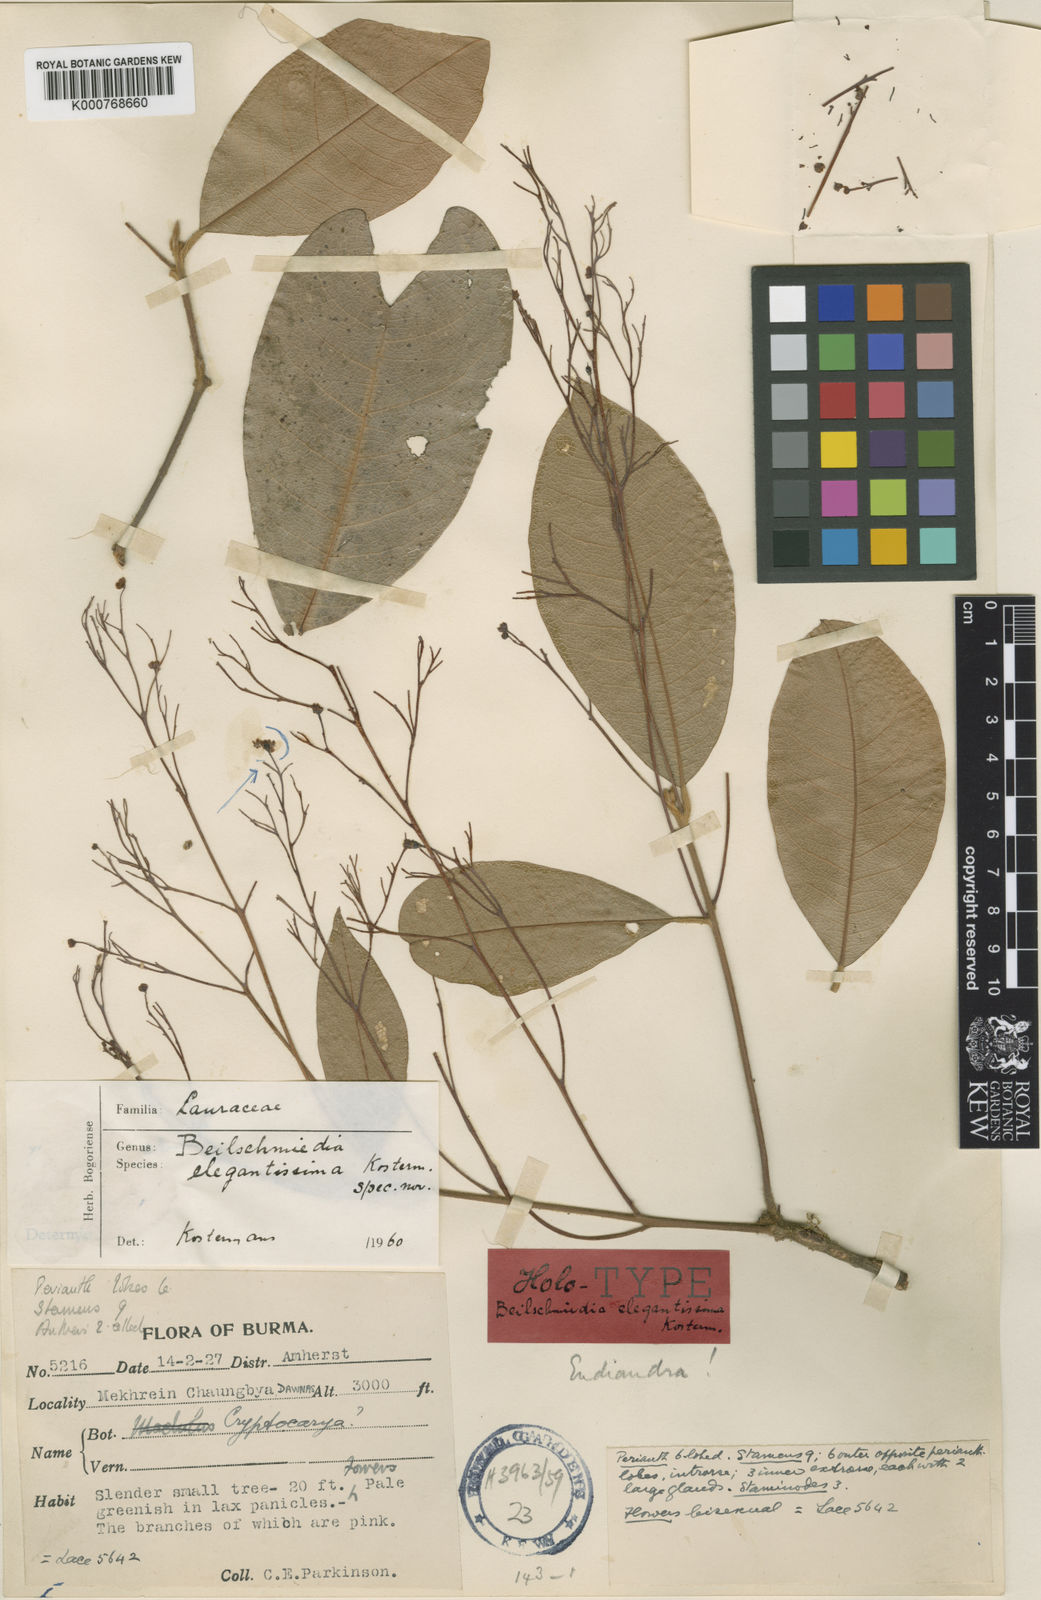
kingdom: Plantae
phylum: Tracheophyta
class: Magnoliopsida
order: Laurales
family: Lauraceae
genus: Beilschmiedia
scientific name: Beilschmiedia elegantissima
